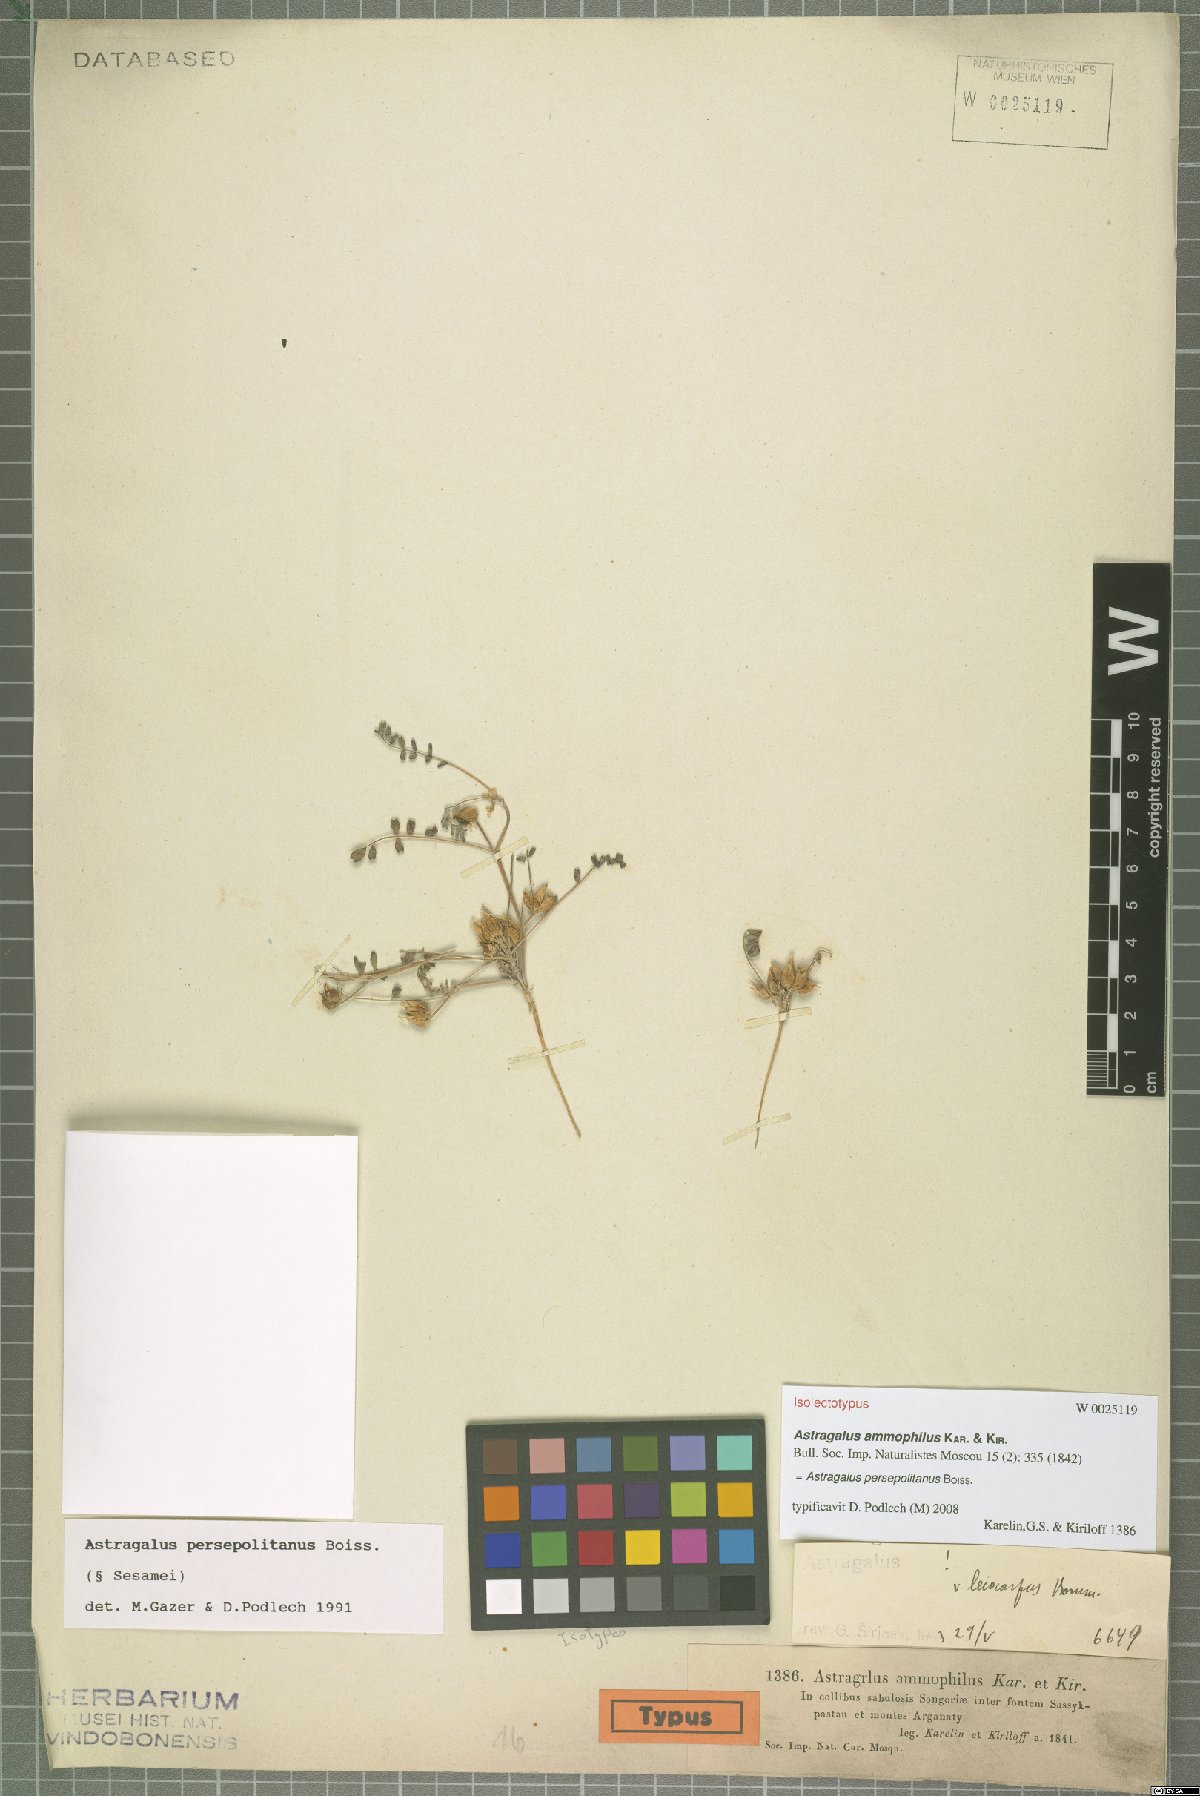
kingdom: Plantae
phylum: Tracheophyta
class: Magnoliopsida
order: Fabales
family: Fabaceae
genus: Astragalus
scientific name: Astragalus ammophilus
